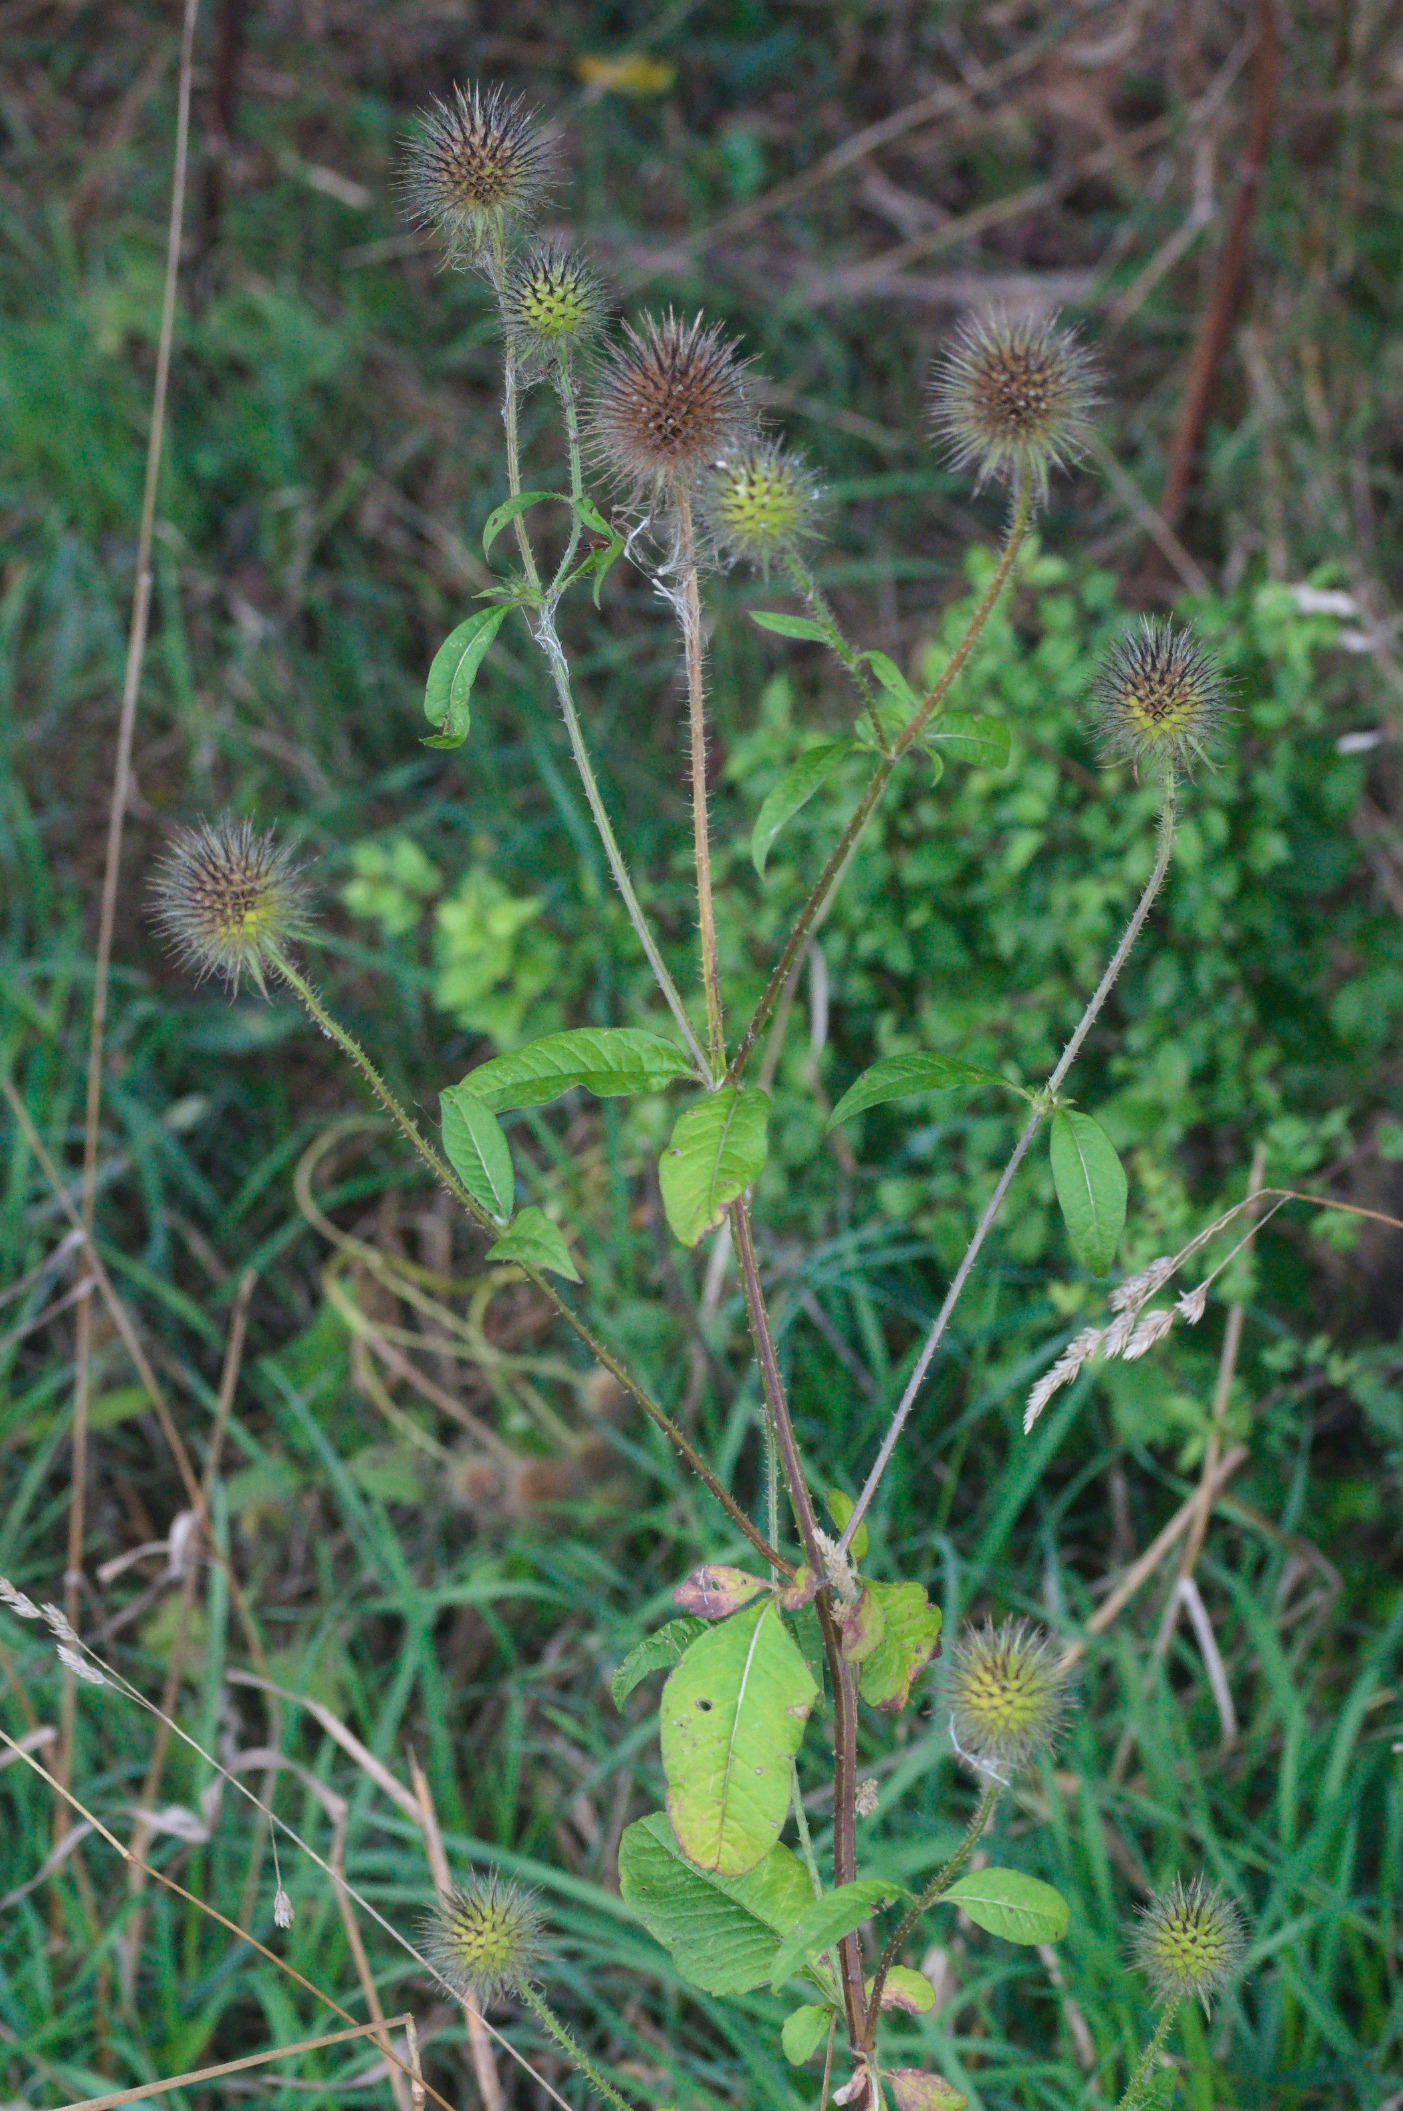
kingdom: Plantae
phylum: Tracheophyta
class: Magnoliopsida
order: Dipsacales
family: Caprifoliaceae
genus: Dipsacus
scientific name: Dipsacus strigosus
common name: Pindsvin-kartebolle
